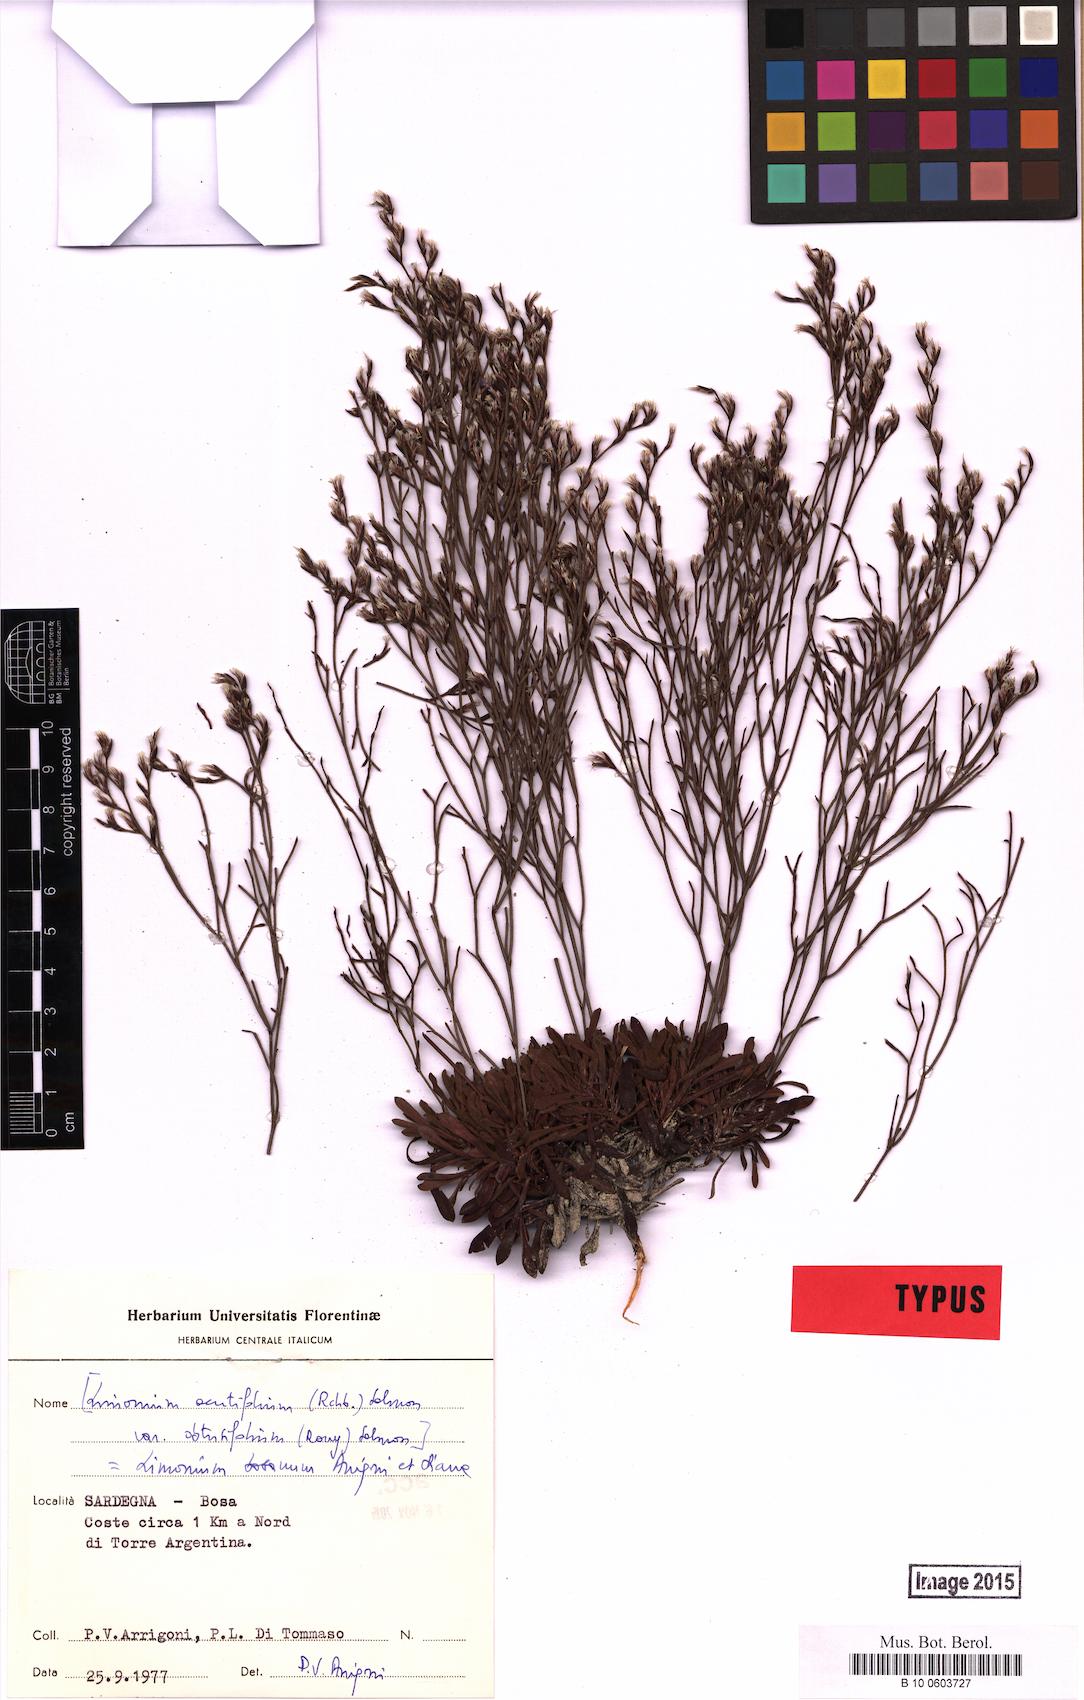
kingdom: Plantae
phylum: Tracheophyta
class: Magnoliopsida
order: Caryophyllales
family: Plumbaginaceae
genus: Limonium
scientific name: Limonium acutifolium
